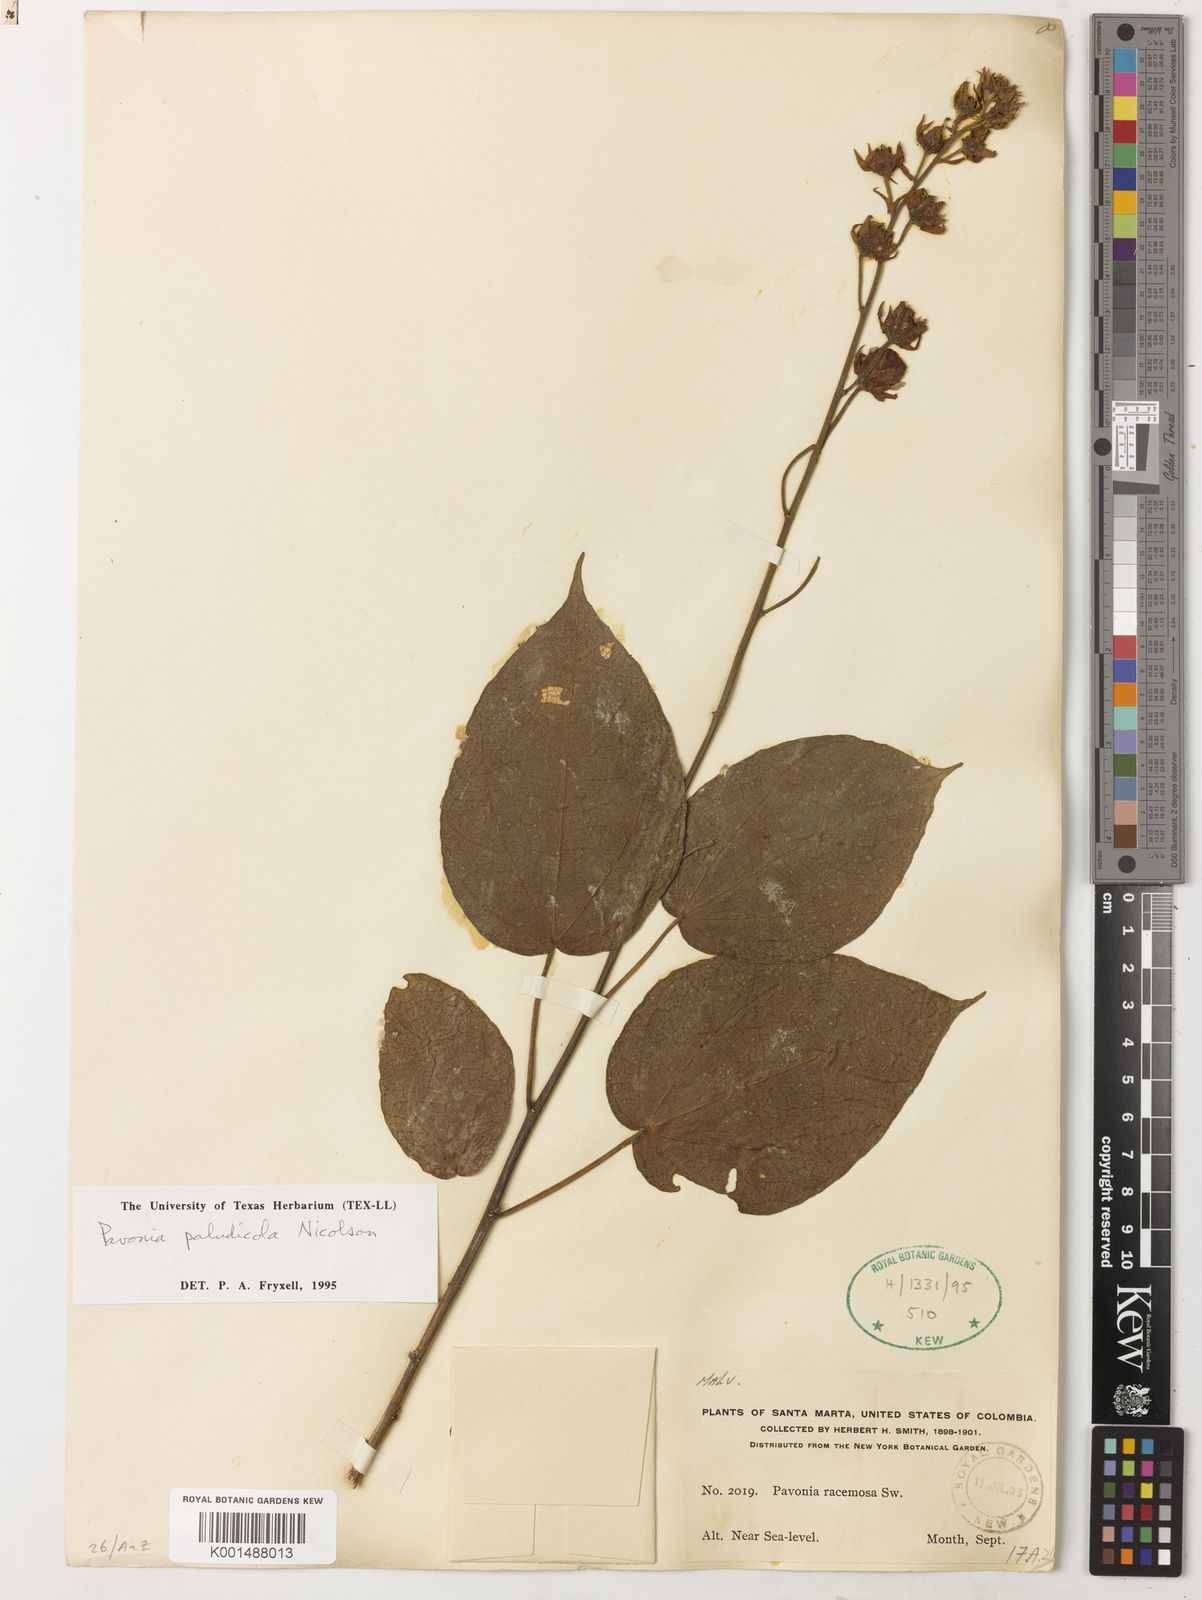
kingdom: Plantae
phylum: Tracheophyta
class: Magnoliopsida
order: Malvales
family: Malvaceae
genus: Pavonia
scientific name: Pavonia paludicola
